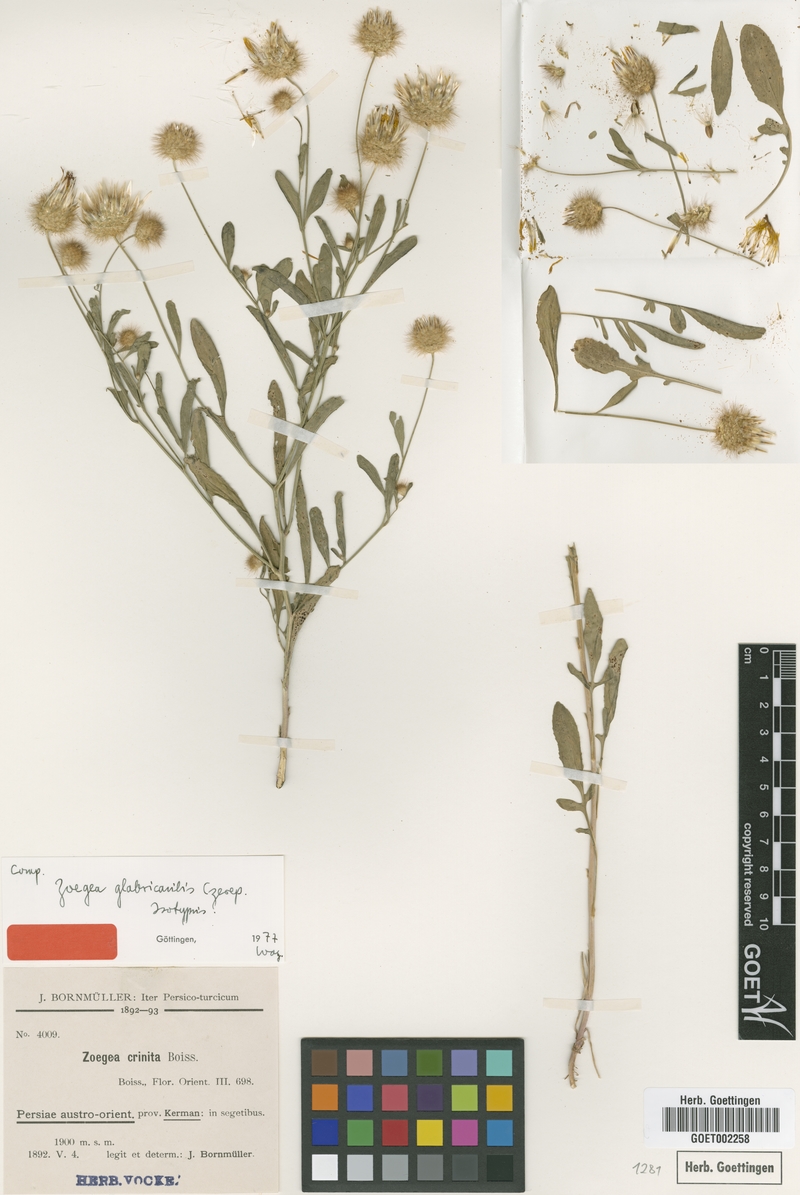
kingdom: Plantae
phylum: Tracheophyta
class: Magnoliopsida
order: Asterales
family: Asteraceae
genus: Zoegea
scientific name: Zoegea
